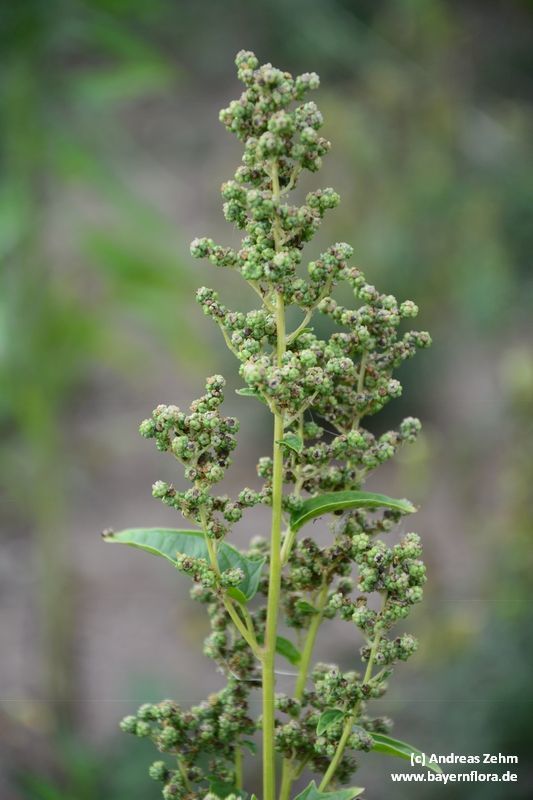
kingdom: Plantae
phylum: Tracheophyta
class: Magnoliopsida
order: Caryophyllales
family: Amaranthaceae
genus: Chenopodiastrum
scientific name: Chenopodiastrum hybridum
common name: Mapleleaf goosefoot
